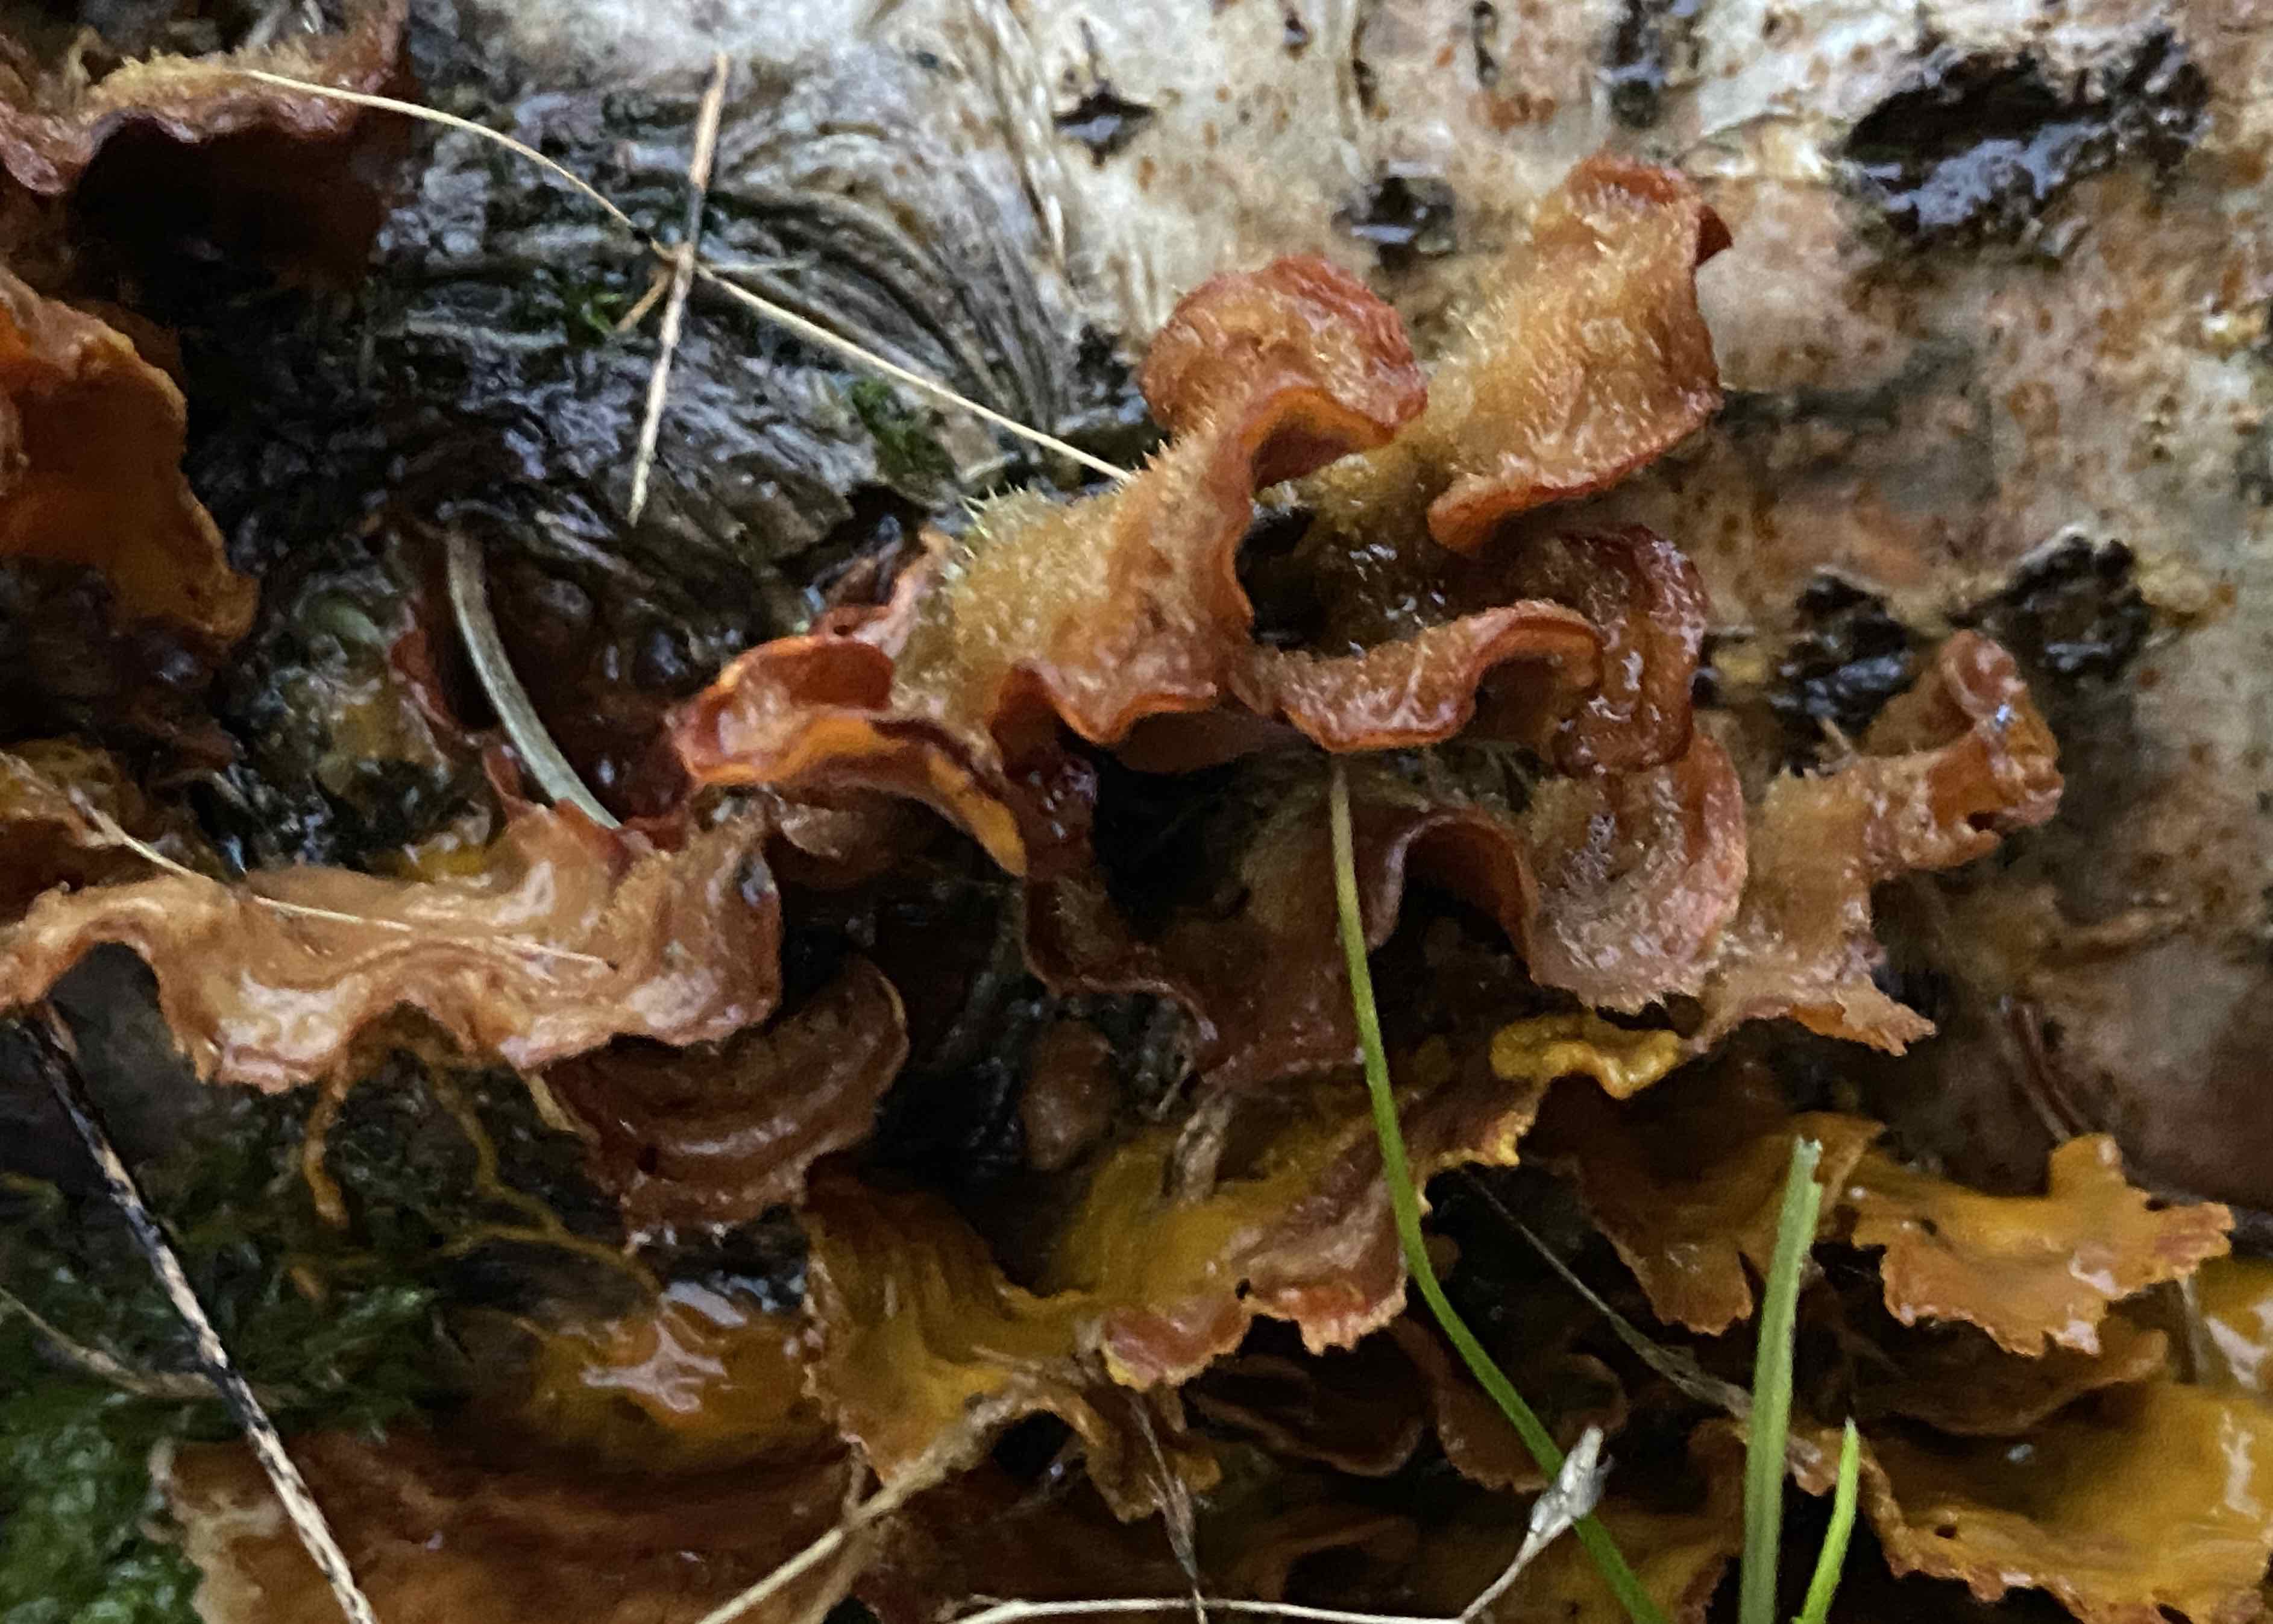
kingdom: Fungi
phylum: Basidiomycota
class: Agaricomycetes
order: Russulales
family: Stereaceae
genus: Stereum
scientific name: Stereum hirsutum
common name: håret lædersvamp
